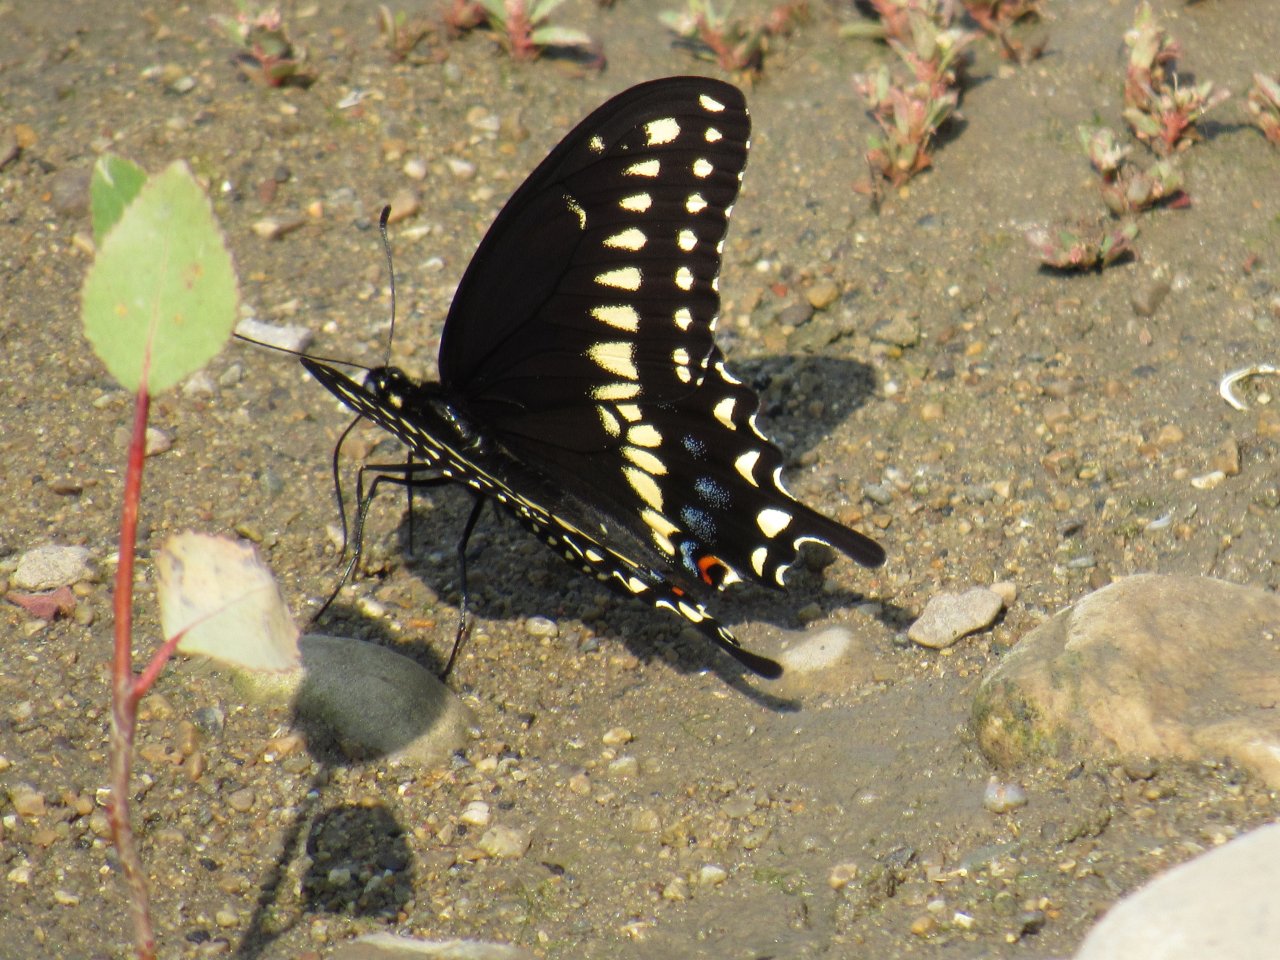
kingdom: Animalia
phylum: Arthropoda
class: Insecta
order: Lepidoptera
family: Papilionidae
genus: Papilio
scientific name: Papilio polyxenes
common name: Black Swallowtail
